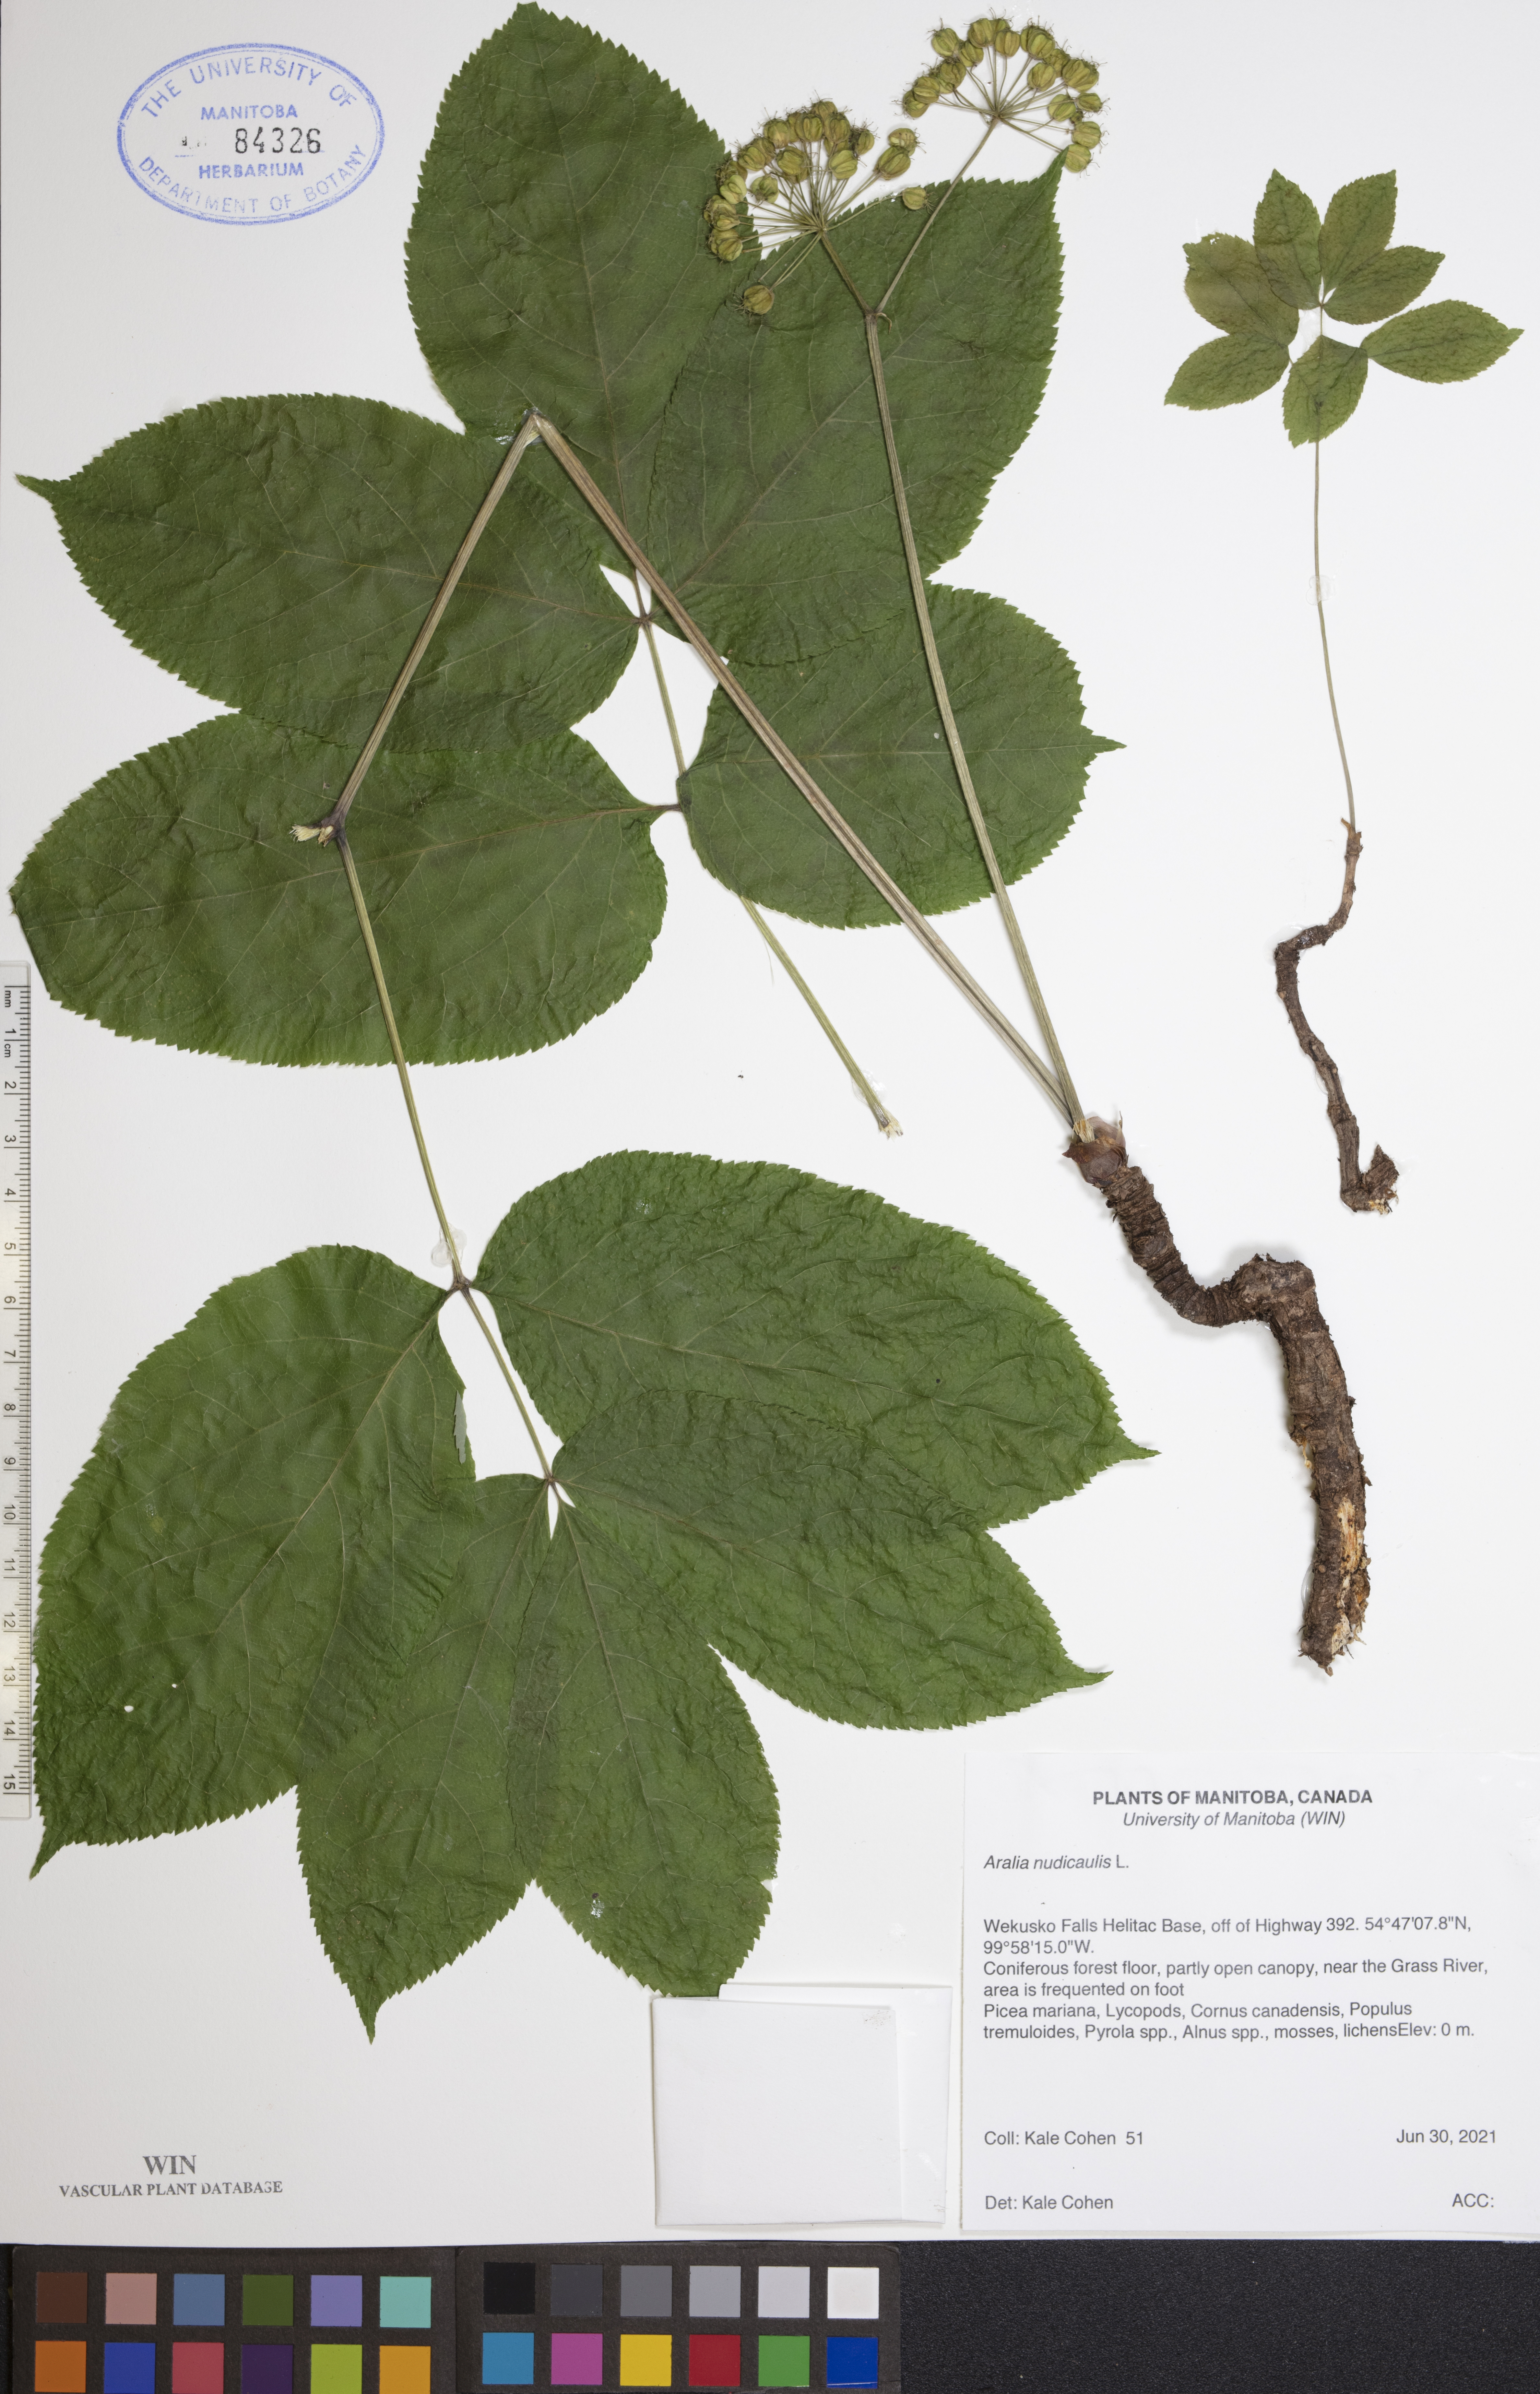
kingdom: Plantae
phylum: Tracheophyta
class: Magnoliopsida
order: Apiales
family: Araliaceae
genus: Aralia
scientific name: Aralia nudicaulis
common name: Wild sarsaparilla
